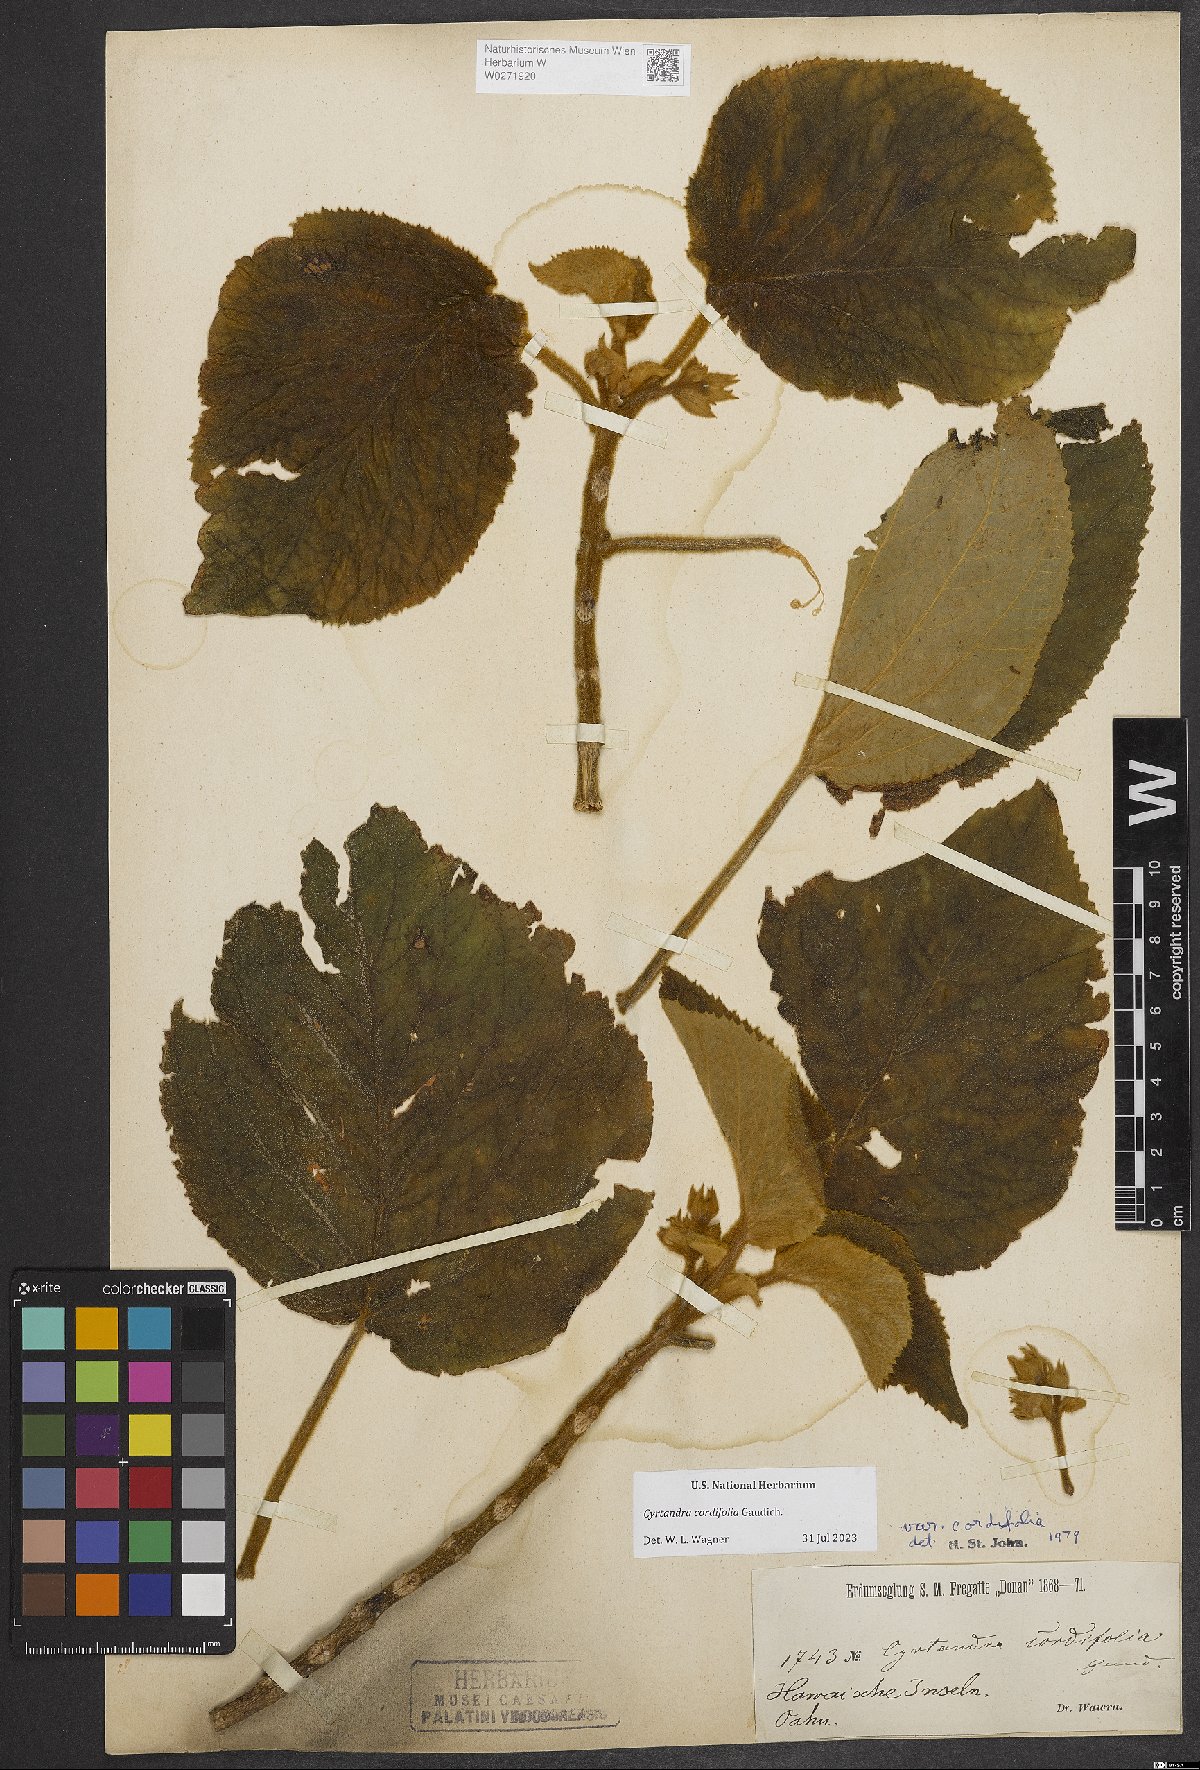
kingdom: Plantae
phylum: Tracheophyta
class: Magnoliopsida
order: Lamiales
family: Gesneriaceae
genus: Cyrtandra
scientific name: Cyrtandra cordifolia
